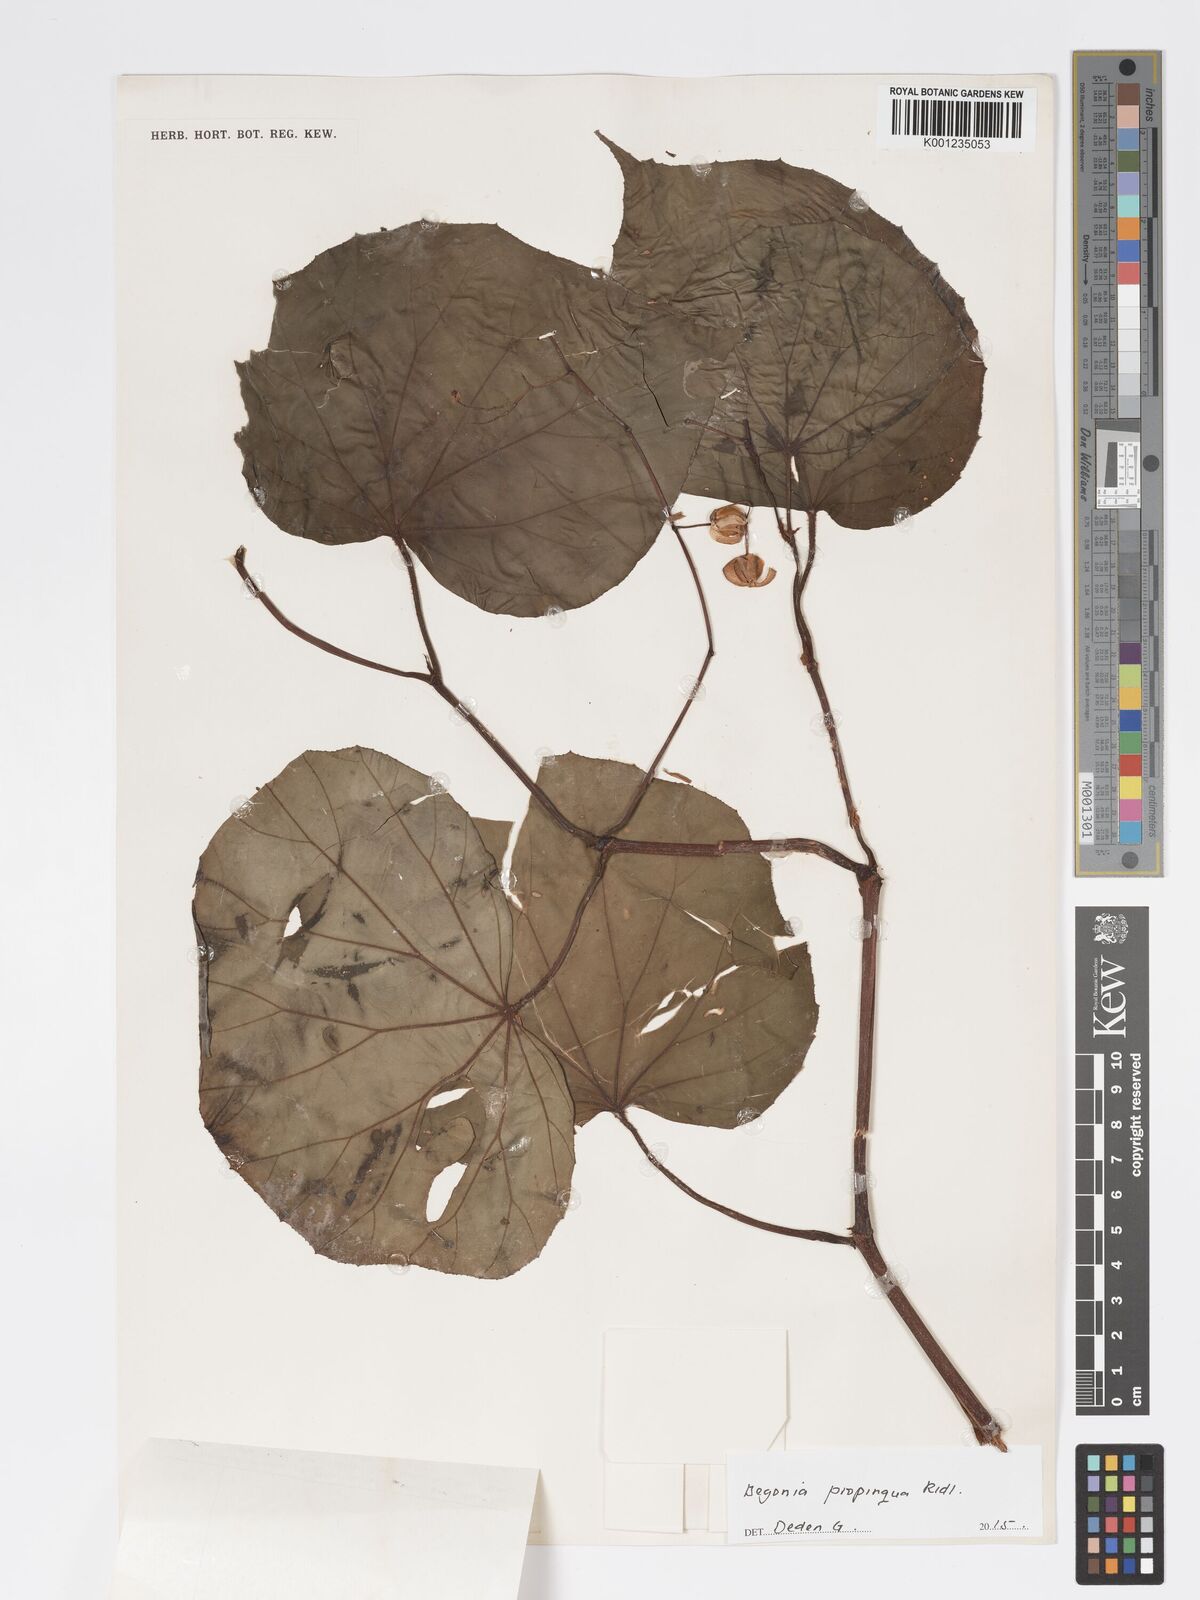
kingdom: Plantae
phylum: Tracheophyta
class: Magnoliopsida
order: Cucurbitales
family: Begoniaceae
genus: Begonia
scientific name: Begonia propinqua
